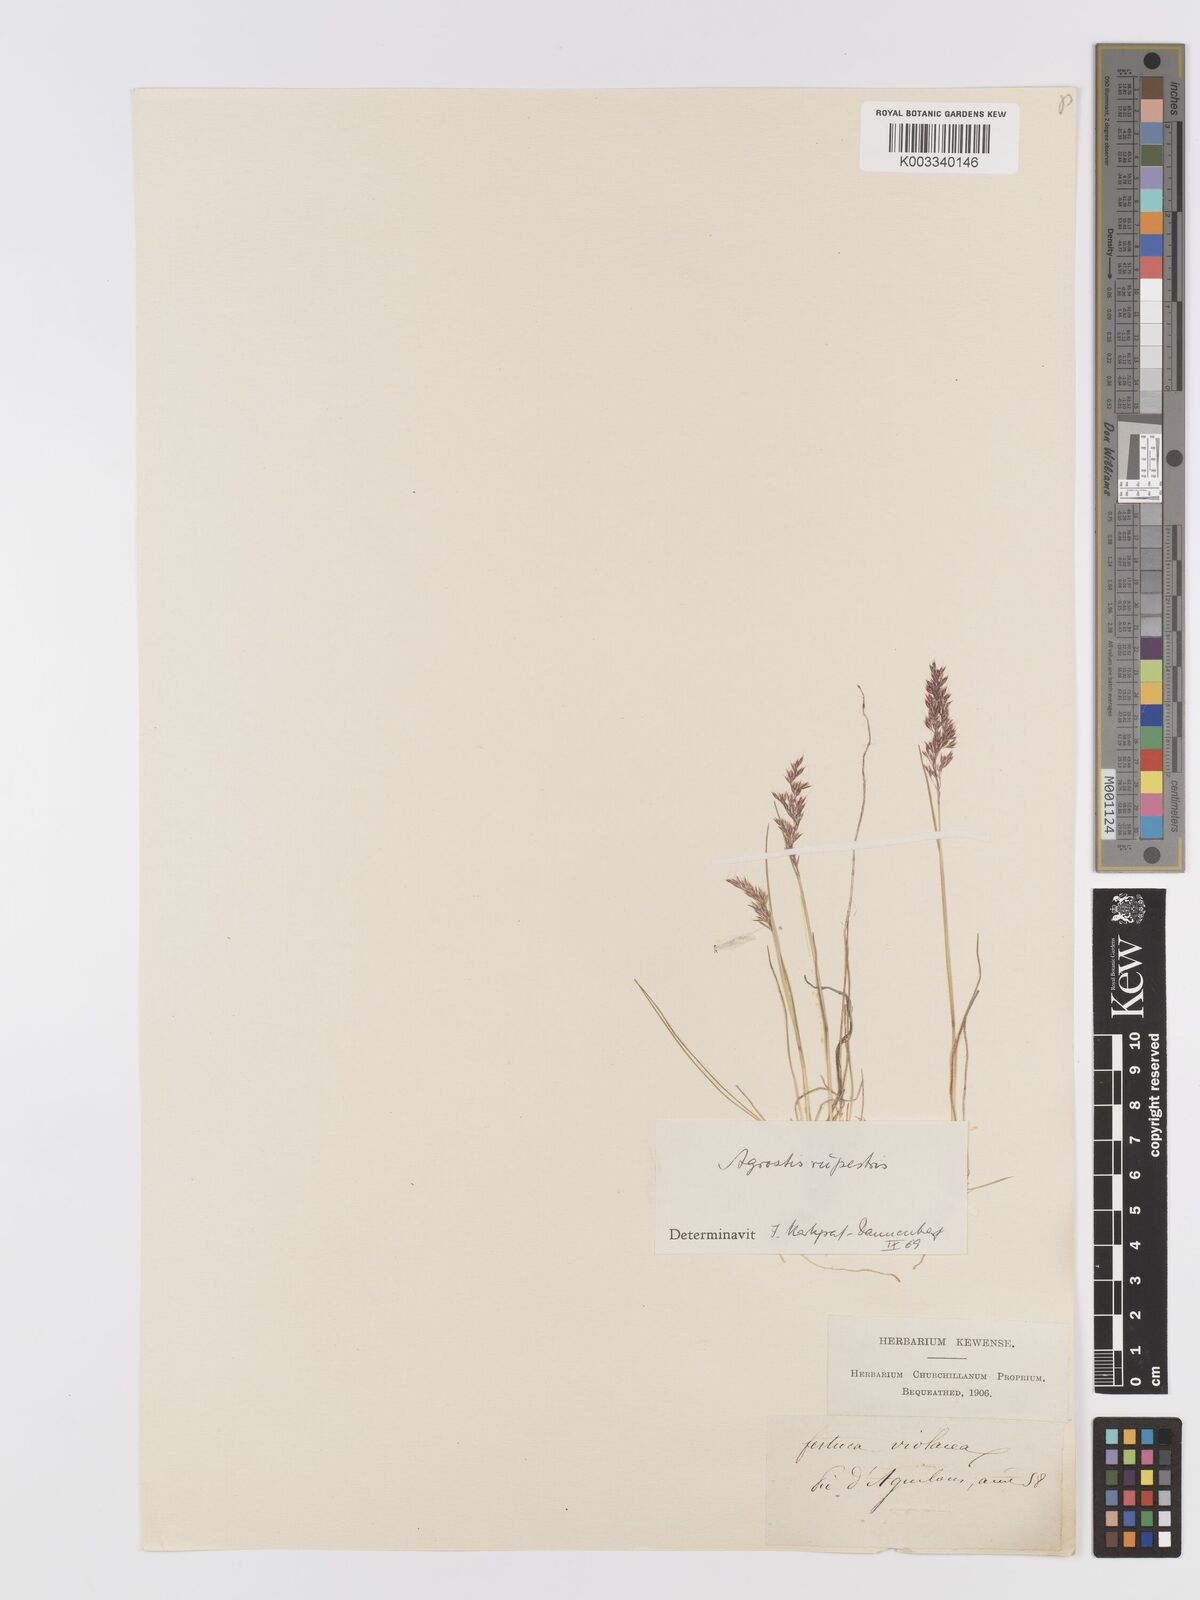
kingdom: Plantae
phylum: Tracheophyta
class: Liliopsida
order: Poales
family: Poaceae
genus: Agrostis
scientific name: Agrostis rupestris
